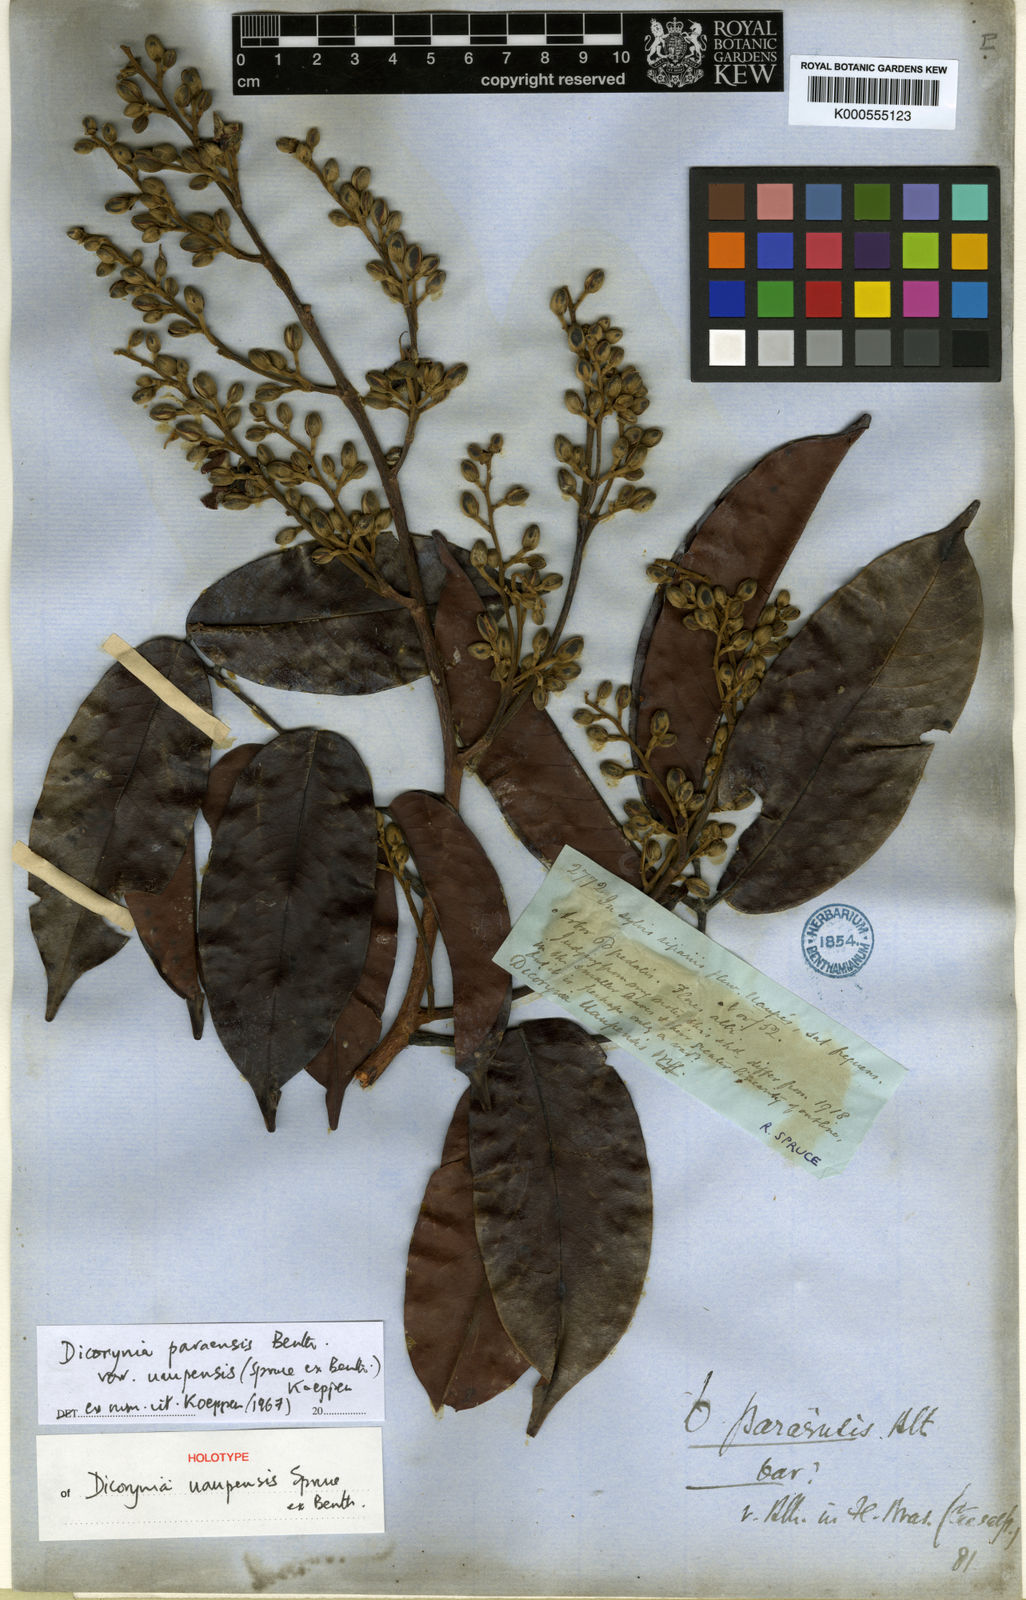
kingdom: Plantae
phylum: Tracheophyta
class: Magnoliopsida
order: Fabales
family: Fabaceae
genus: Dicorynia
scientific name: Dicorynia paraensis
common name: Angelique
